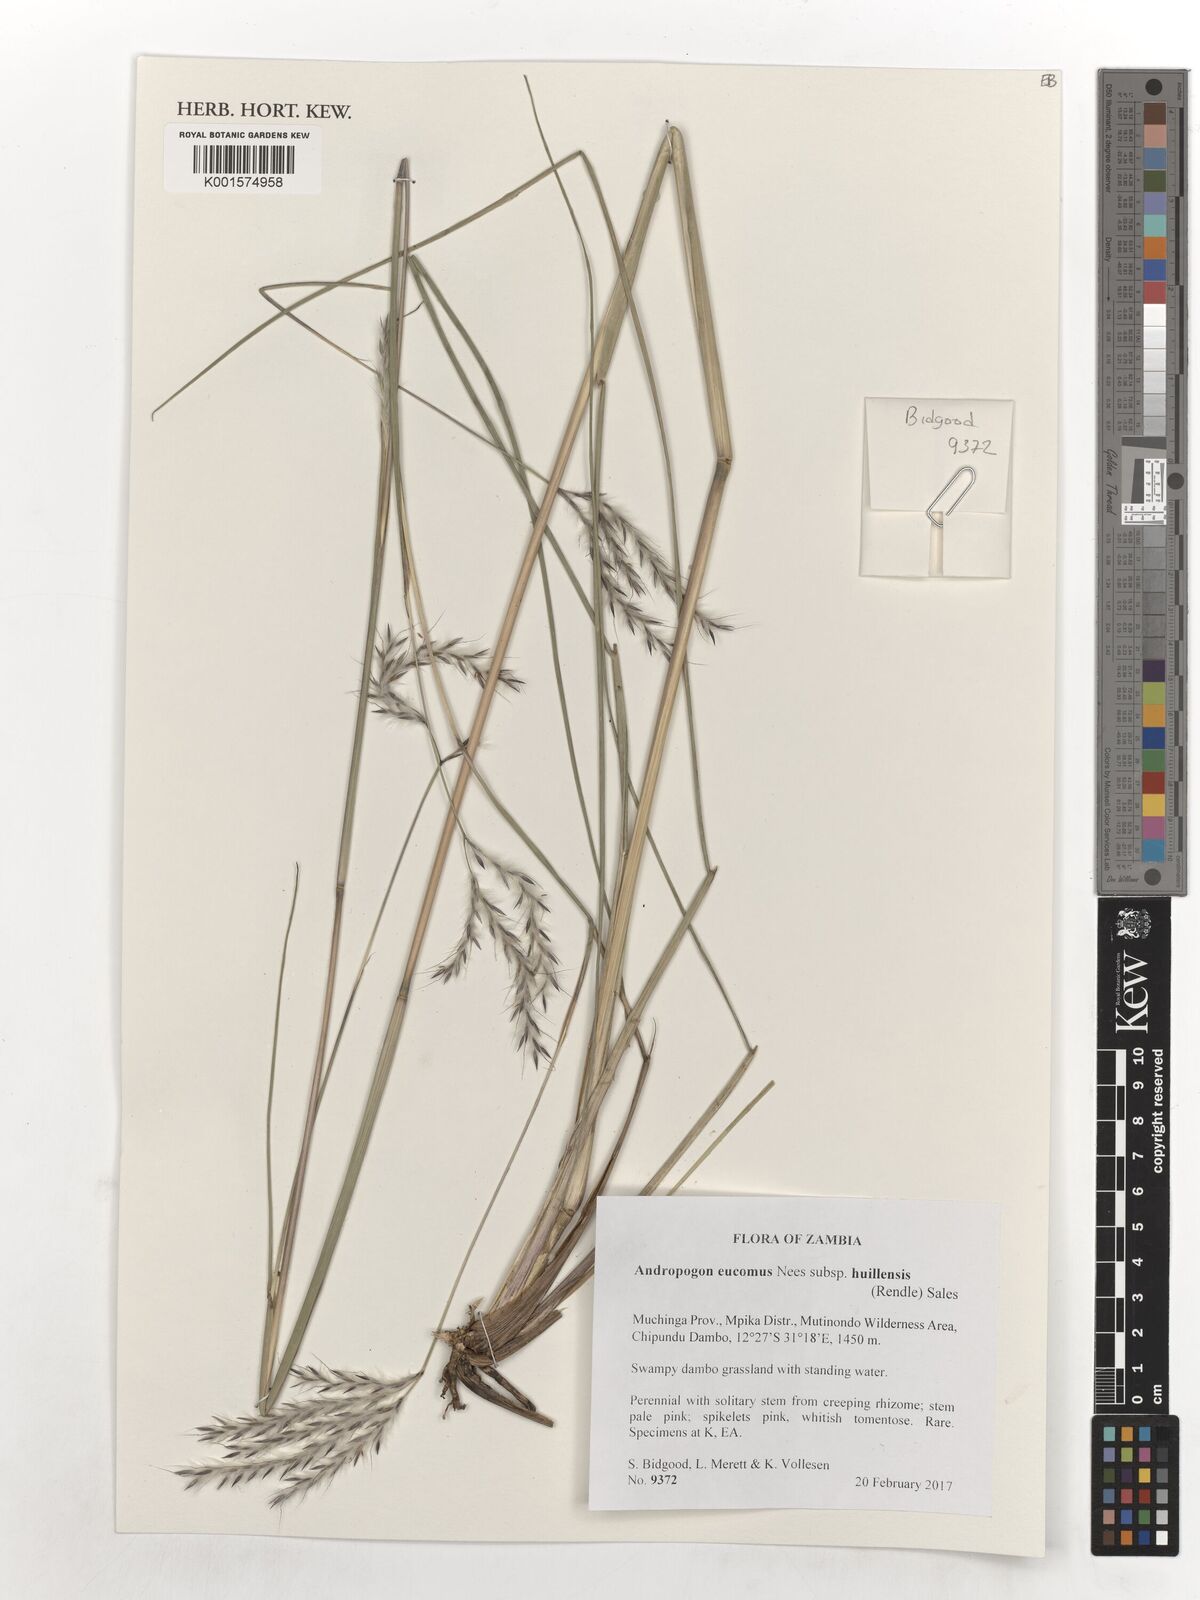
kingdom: Plantae
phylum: Tracheophyta
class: Liliopsida
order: Poales
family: Poaceae
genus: Andropogon
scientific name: Andropogon eucomus
